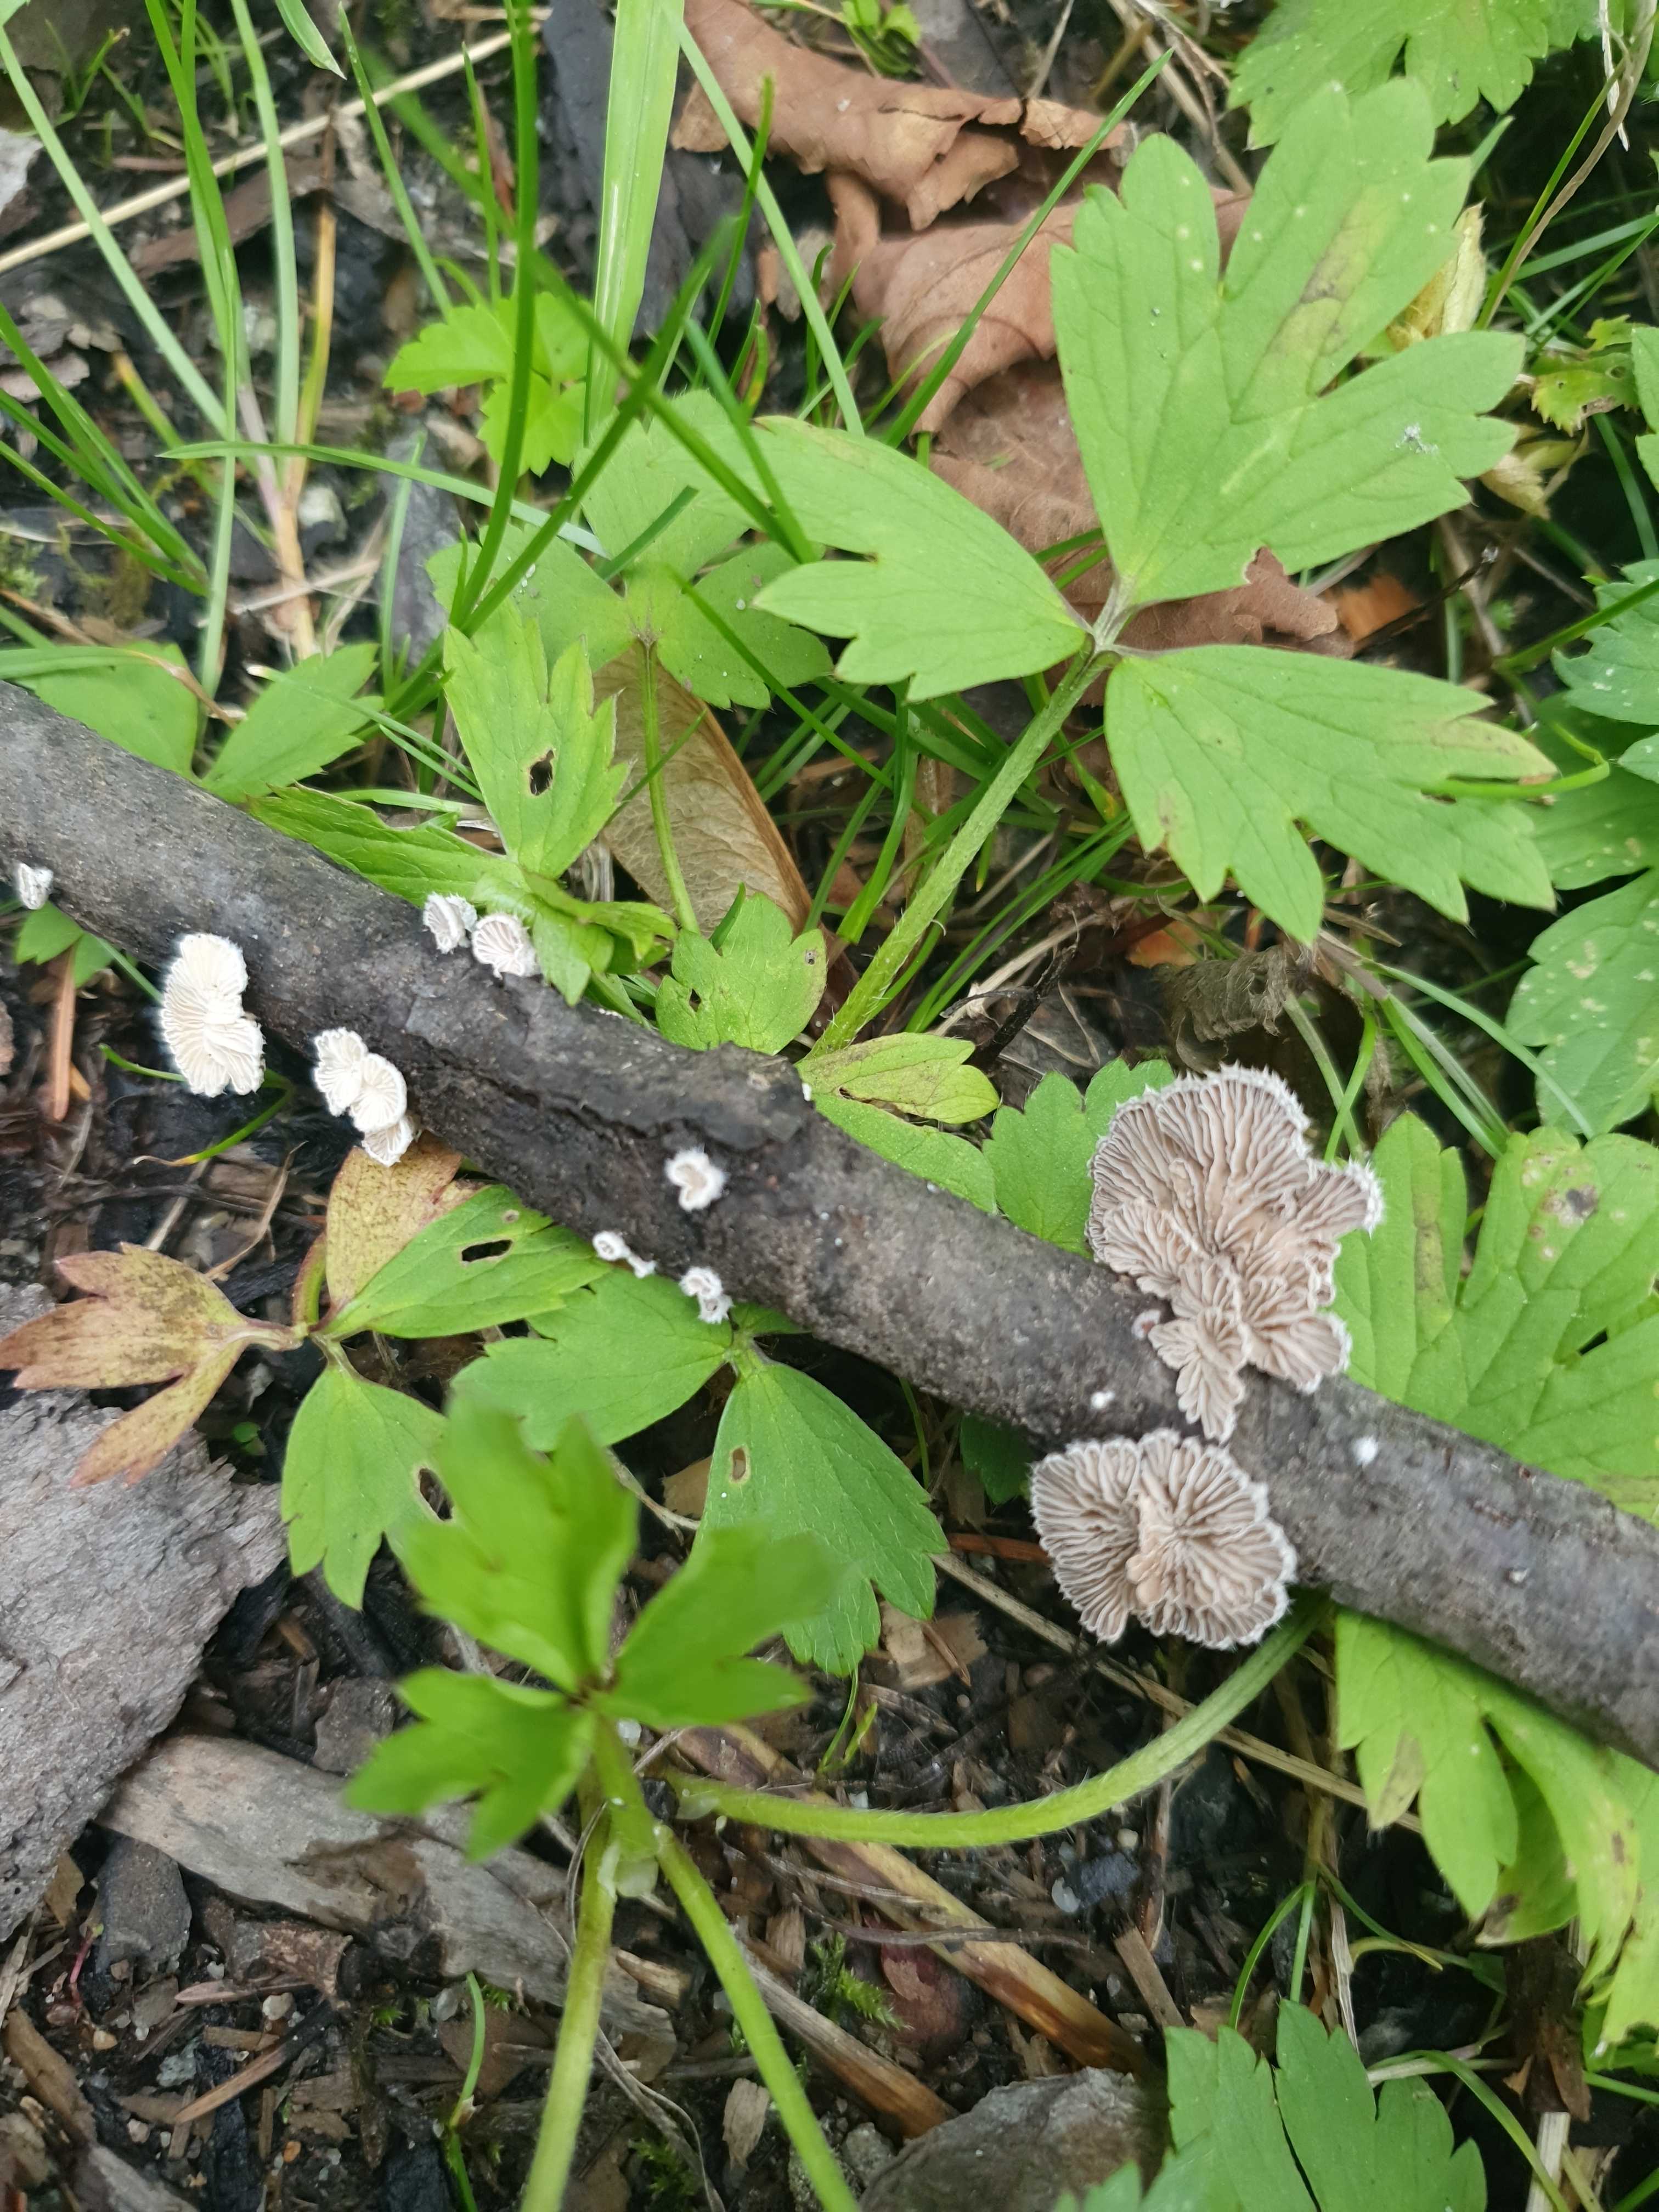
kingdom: Fungi
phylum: Basidiomycota
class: Agaricomycetes
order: Agaricales
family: Schizophyllaceae
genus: Schizophyllum
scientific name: Schizophyllum commune
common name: kløvblad
